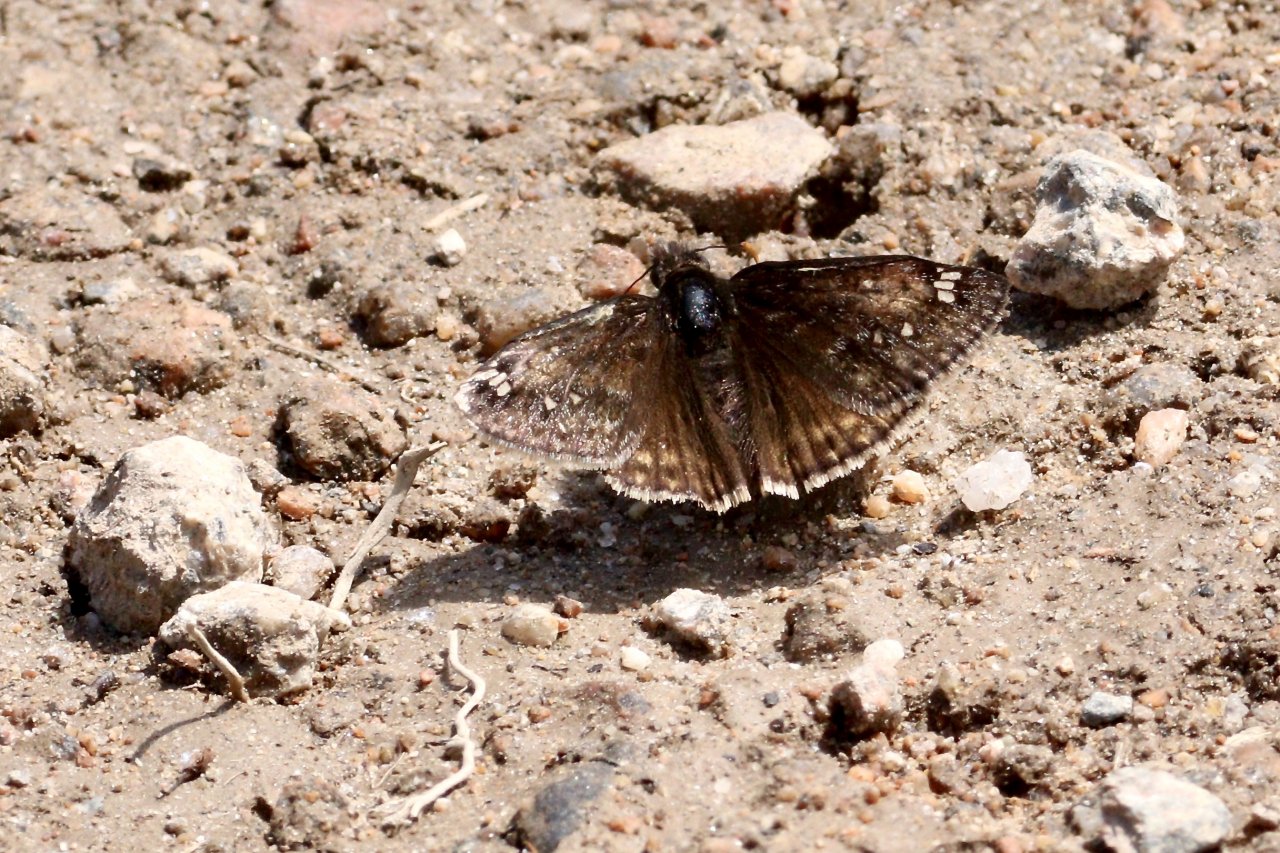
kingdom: Animalia
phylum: Arthropoda
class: Insecta
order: Lepidoptera
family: Hesperiidae
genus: Gesta
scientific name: Gesta
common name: Juvenal's Duskywing
